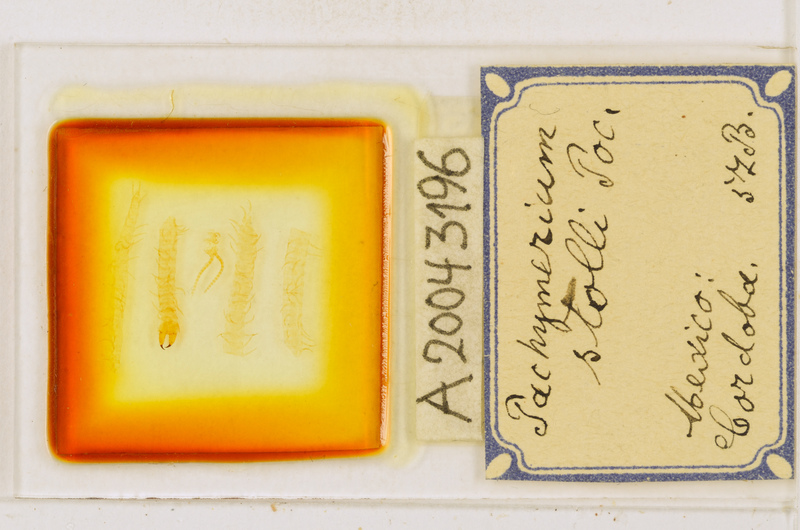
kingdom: Animalia
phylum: Arthropoda
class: Chilopoda
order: Geophilomorpha
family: Geophilidae
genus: Polycricus
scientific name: Polycricus stolli
